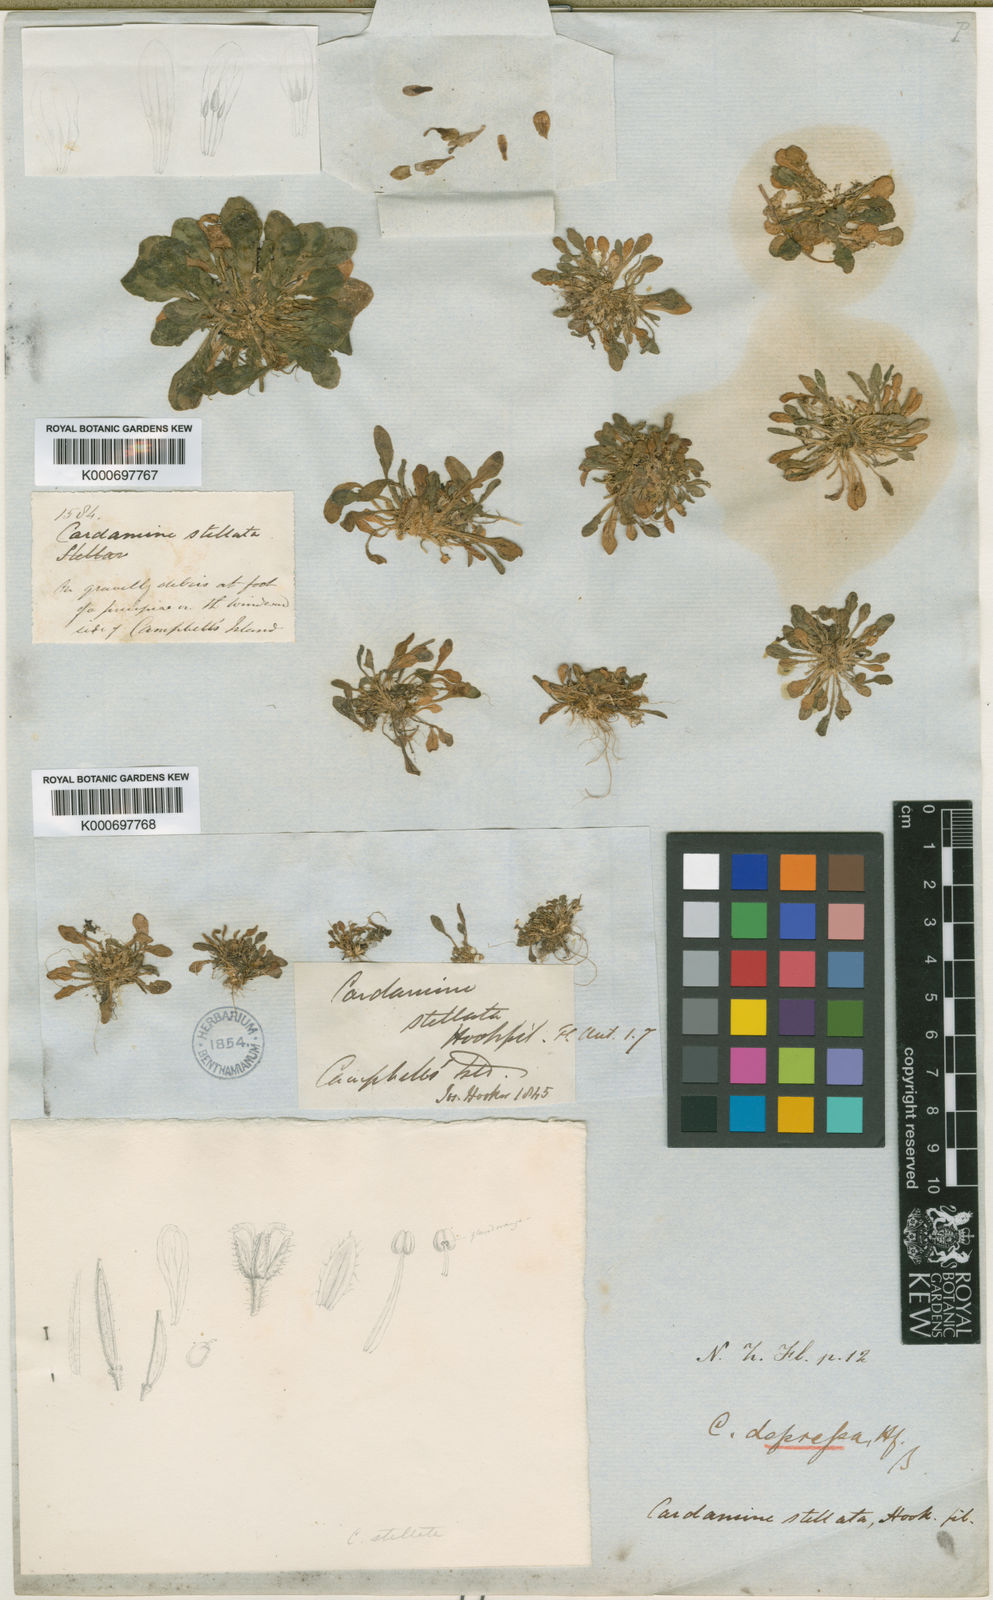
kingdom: Plantae
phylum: Tracheophyta
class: Magnoliopsida
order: Brassicales
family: Brassicaceae
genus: Cardamine
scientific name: Cardamine depressa
